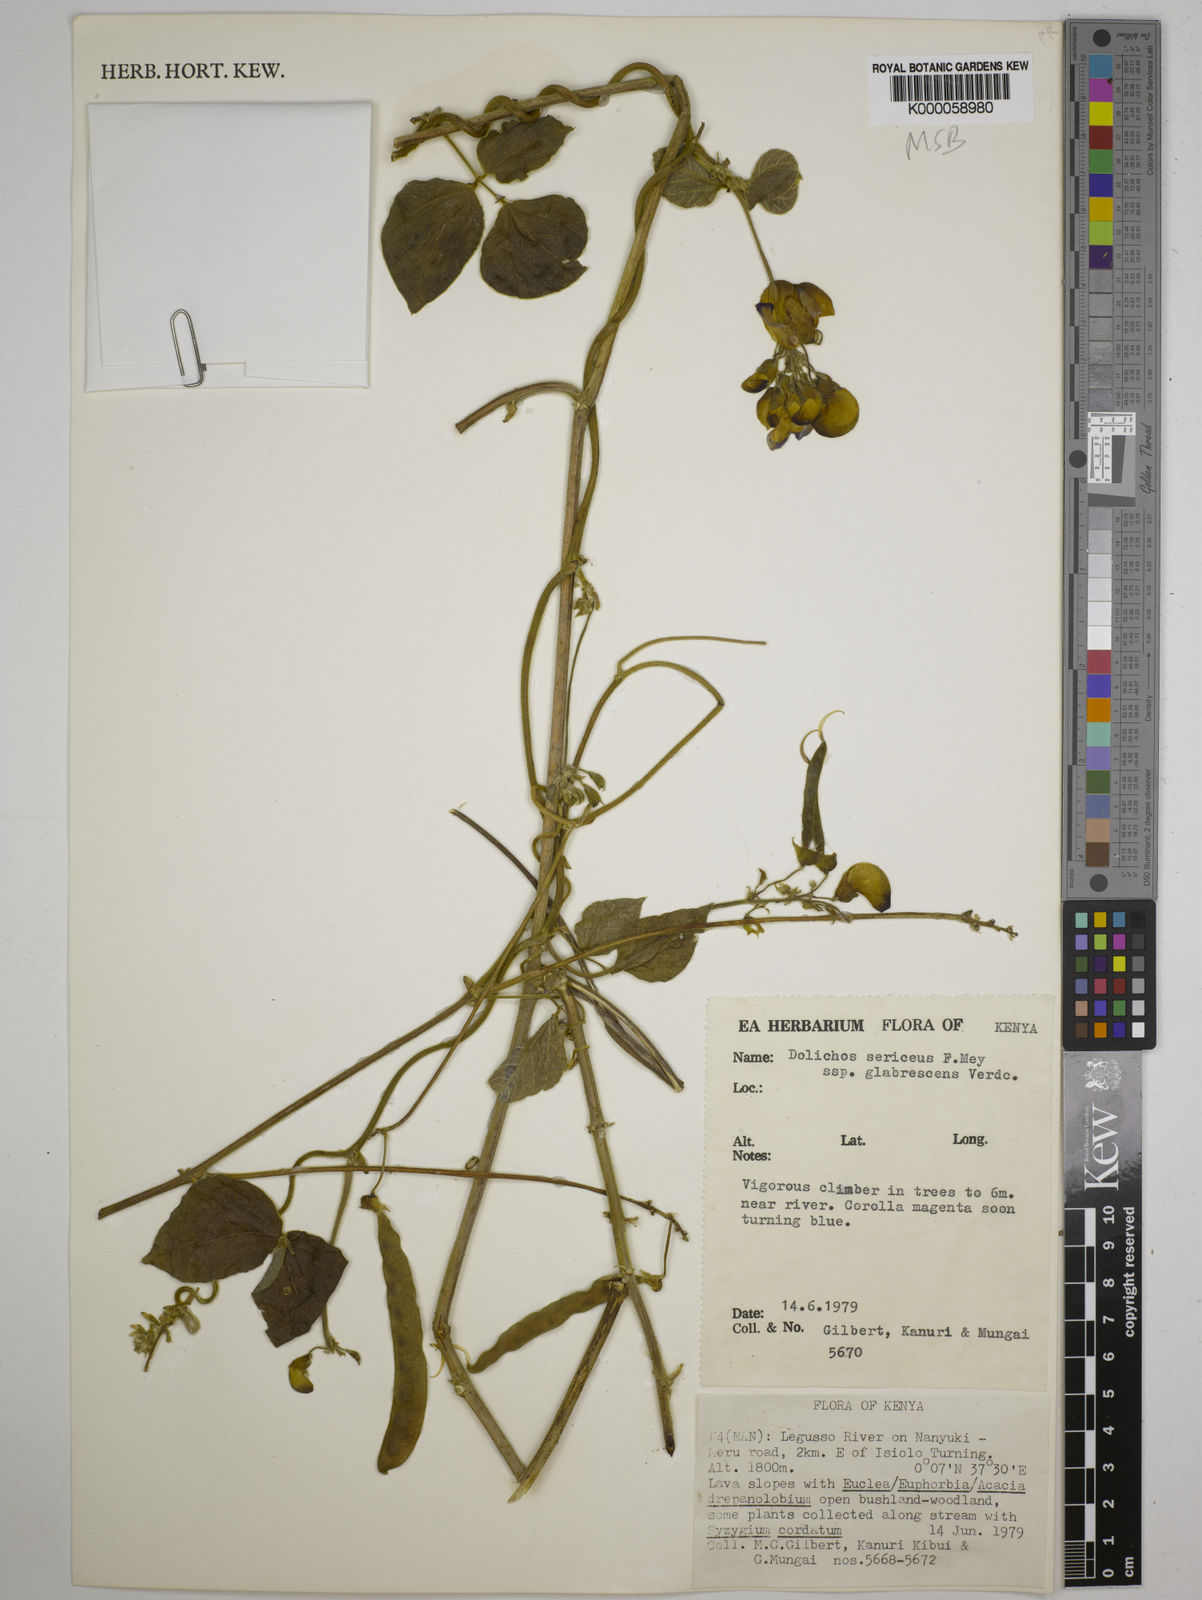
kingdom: Plantae
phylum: Tracheophyta
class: Magnoliopsida
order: Fabales
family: Fabaceae
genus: Dolichos
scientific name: Dolichos sericeus
